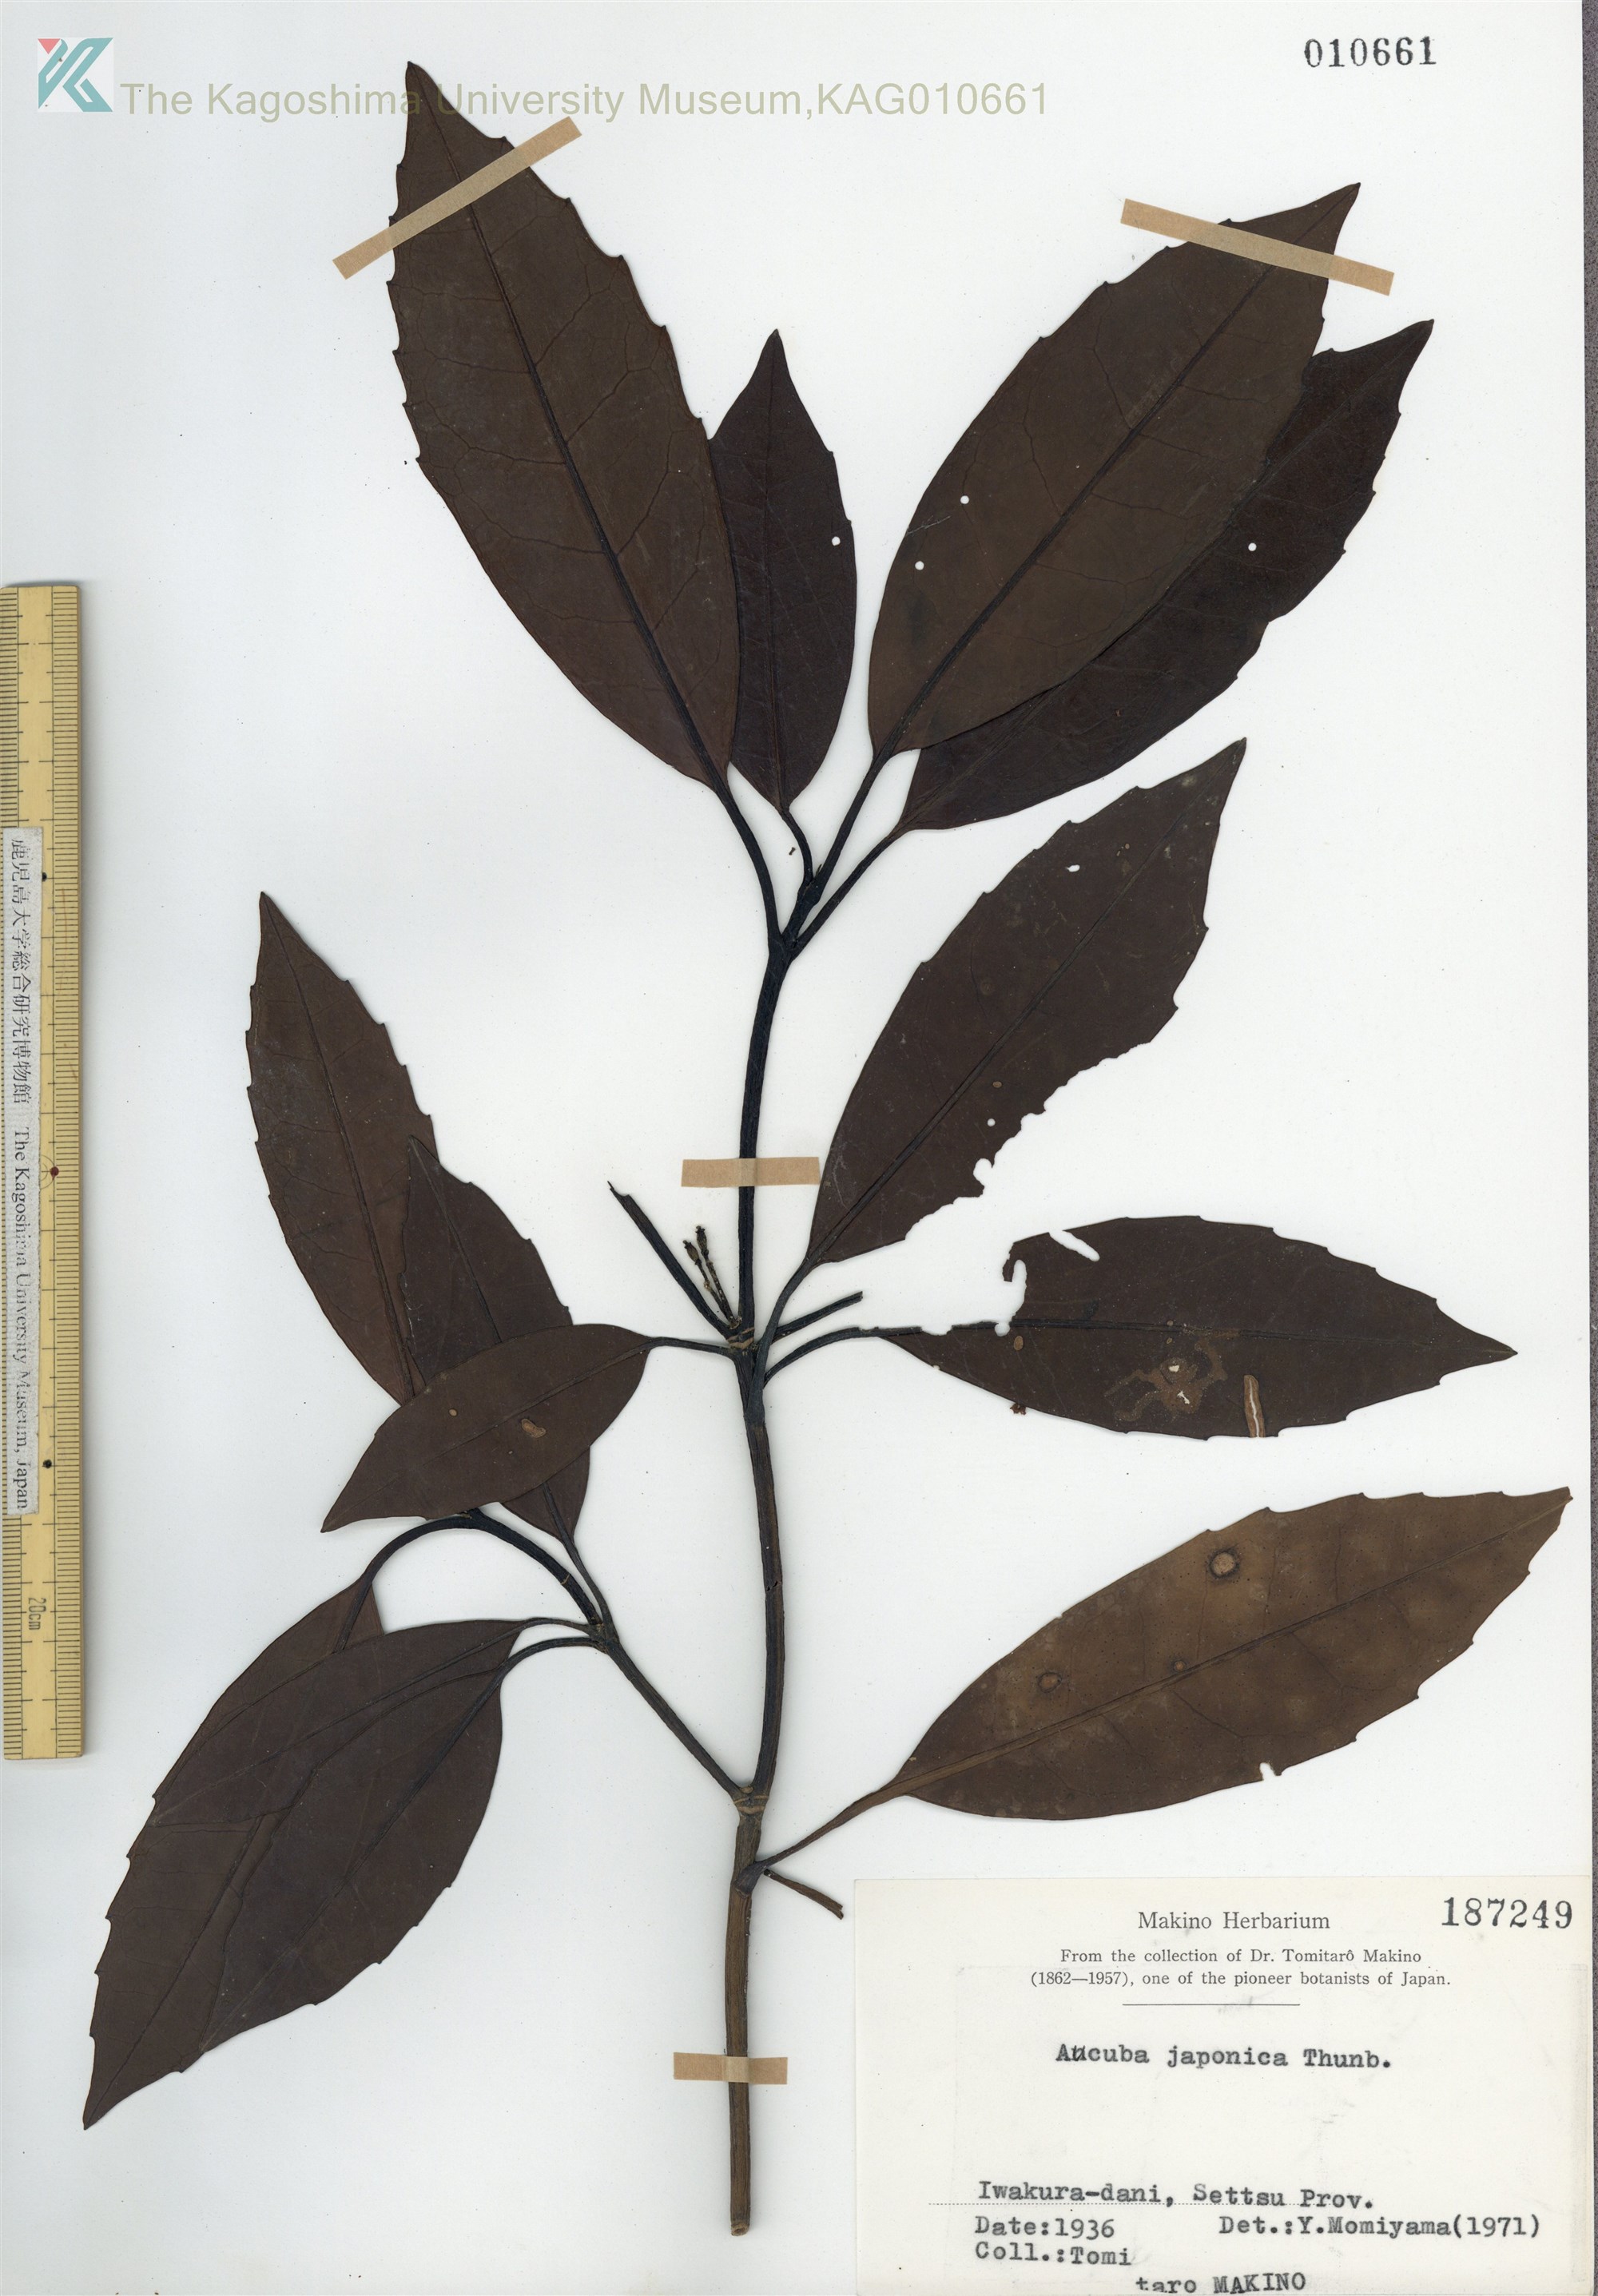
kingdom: Plantae
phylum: Tracheophyta
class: Magnoliopsida
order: Garryales
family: Garryaceae
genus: Aucuba
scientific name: Aucuba japonica
